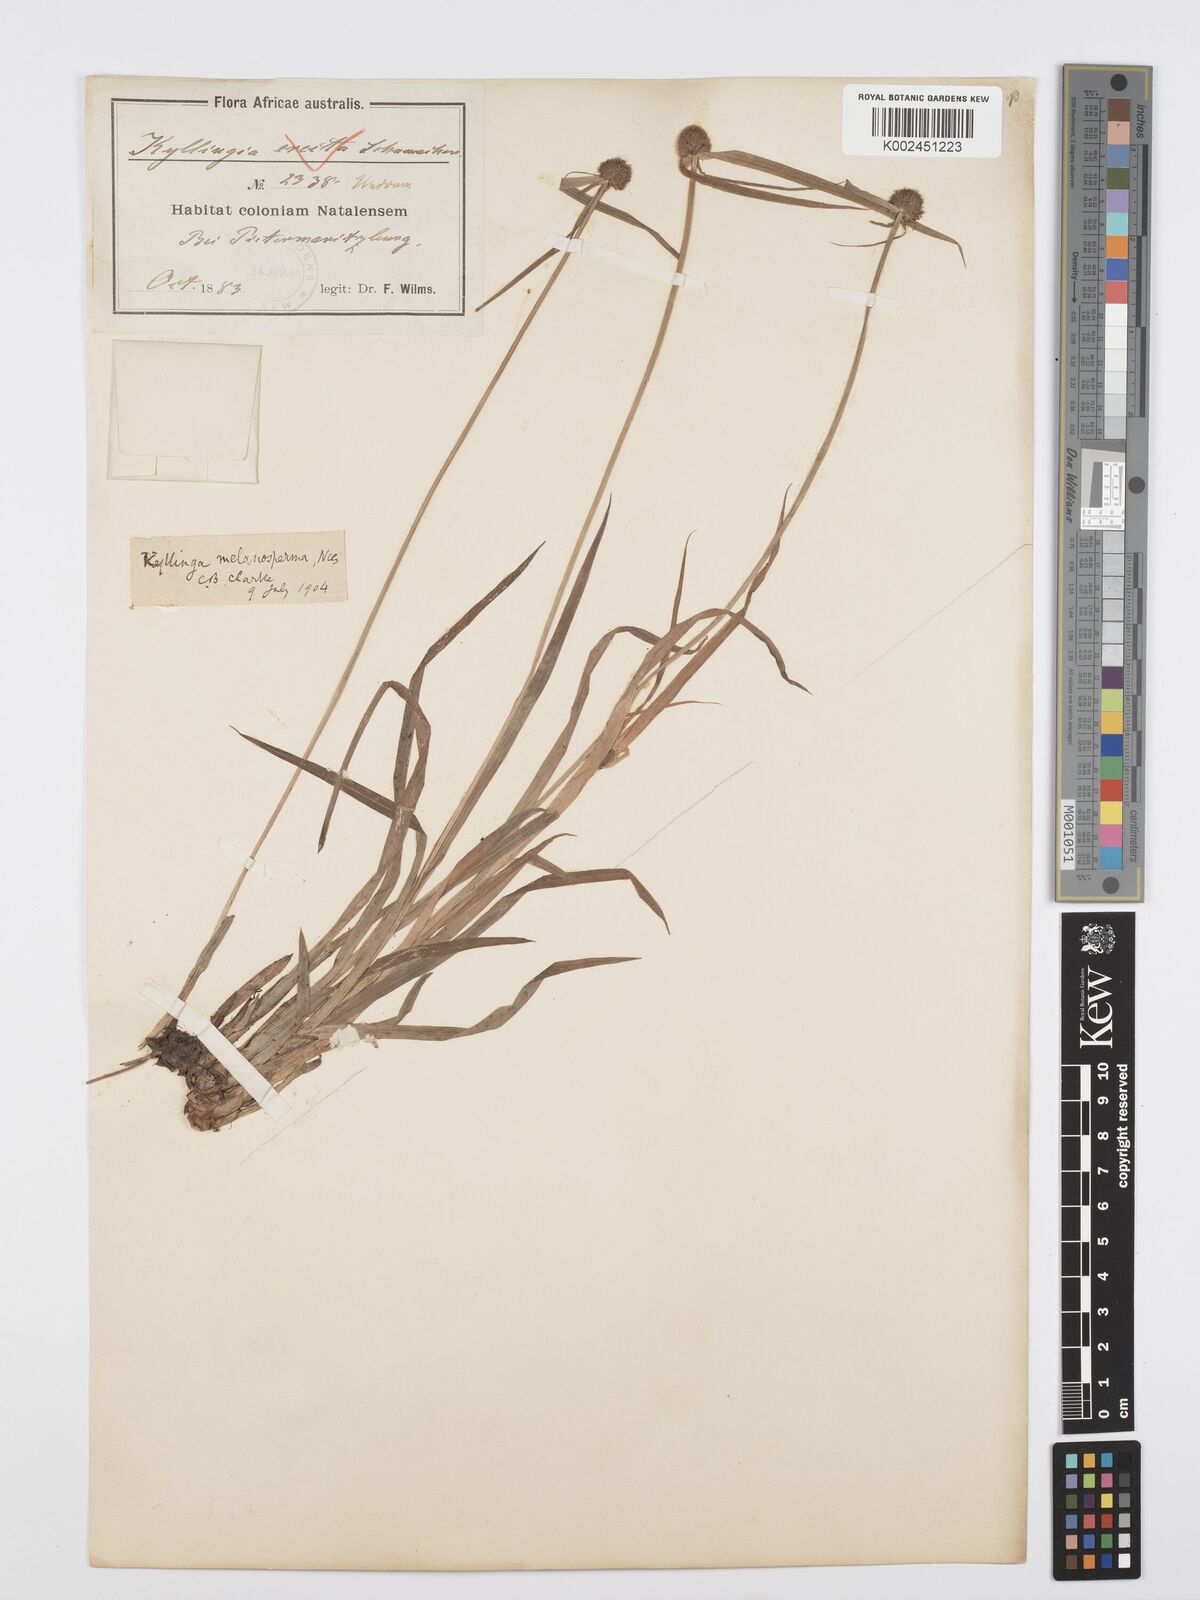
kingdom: Plantae
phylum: Tracheophyta
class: Liliopsida
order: Poales
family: Cyperaceae
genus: Cyperus
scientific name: Cyperus melanospermus
